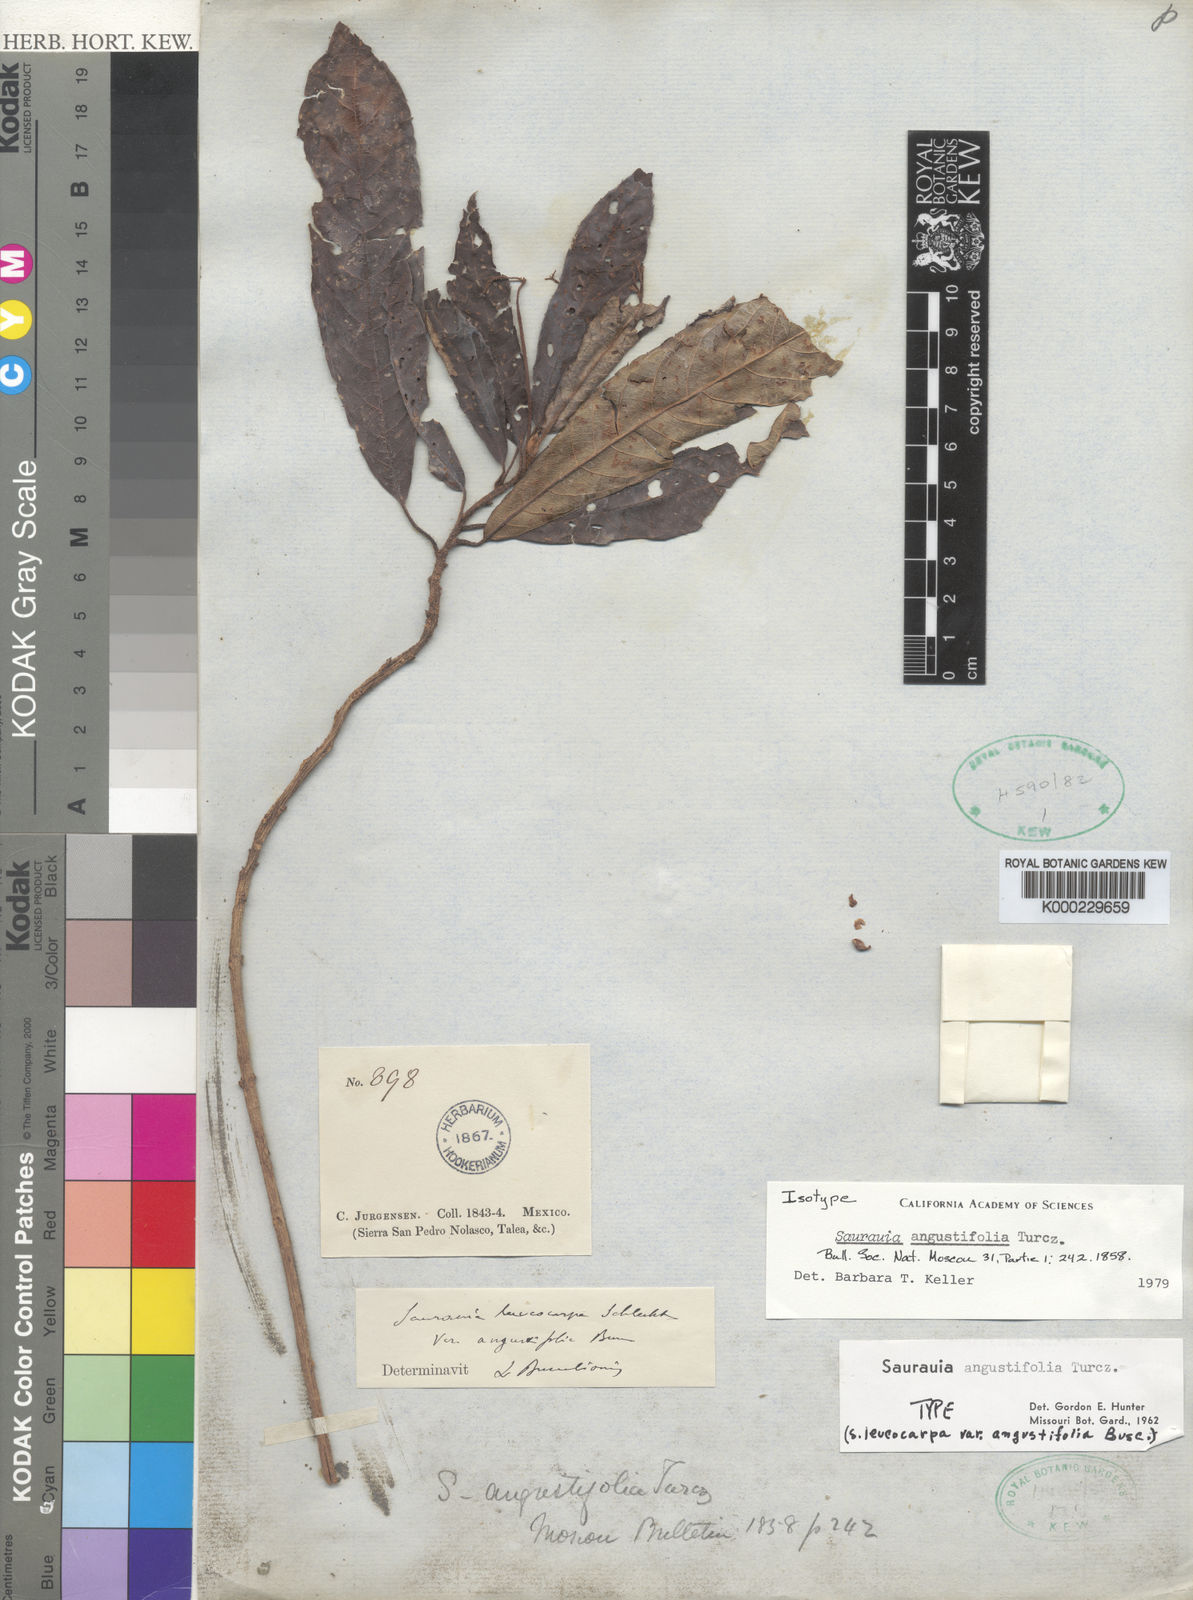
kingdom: Plantae
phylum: Tracheophyta
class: Magnoliopsida
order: Ericales
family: Actinidiaceae
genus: Saurauia
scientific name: Saurauia angustifolia
